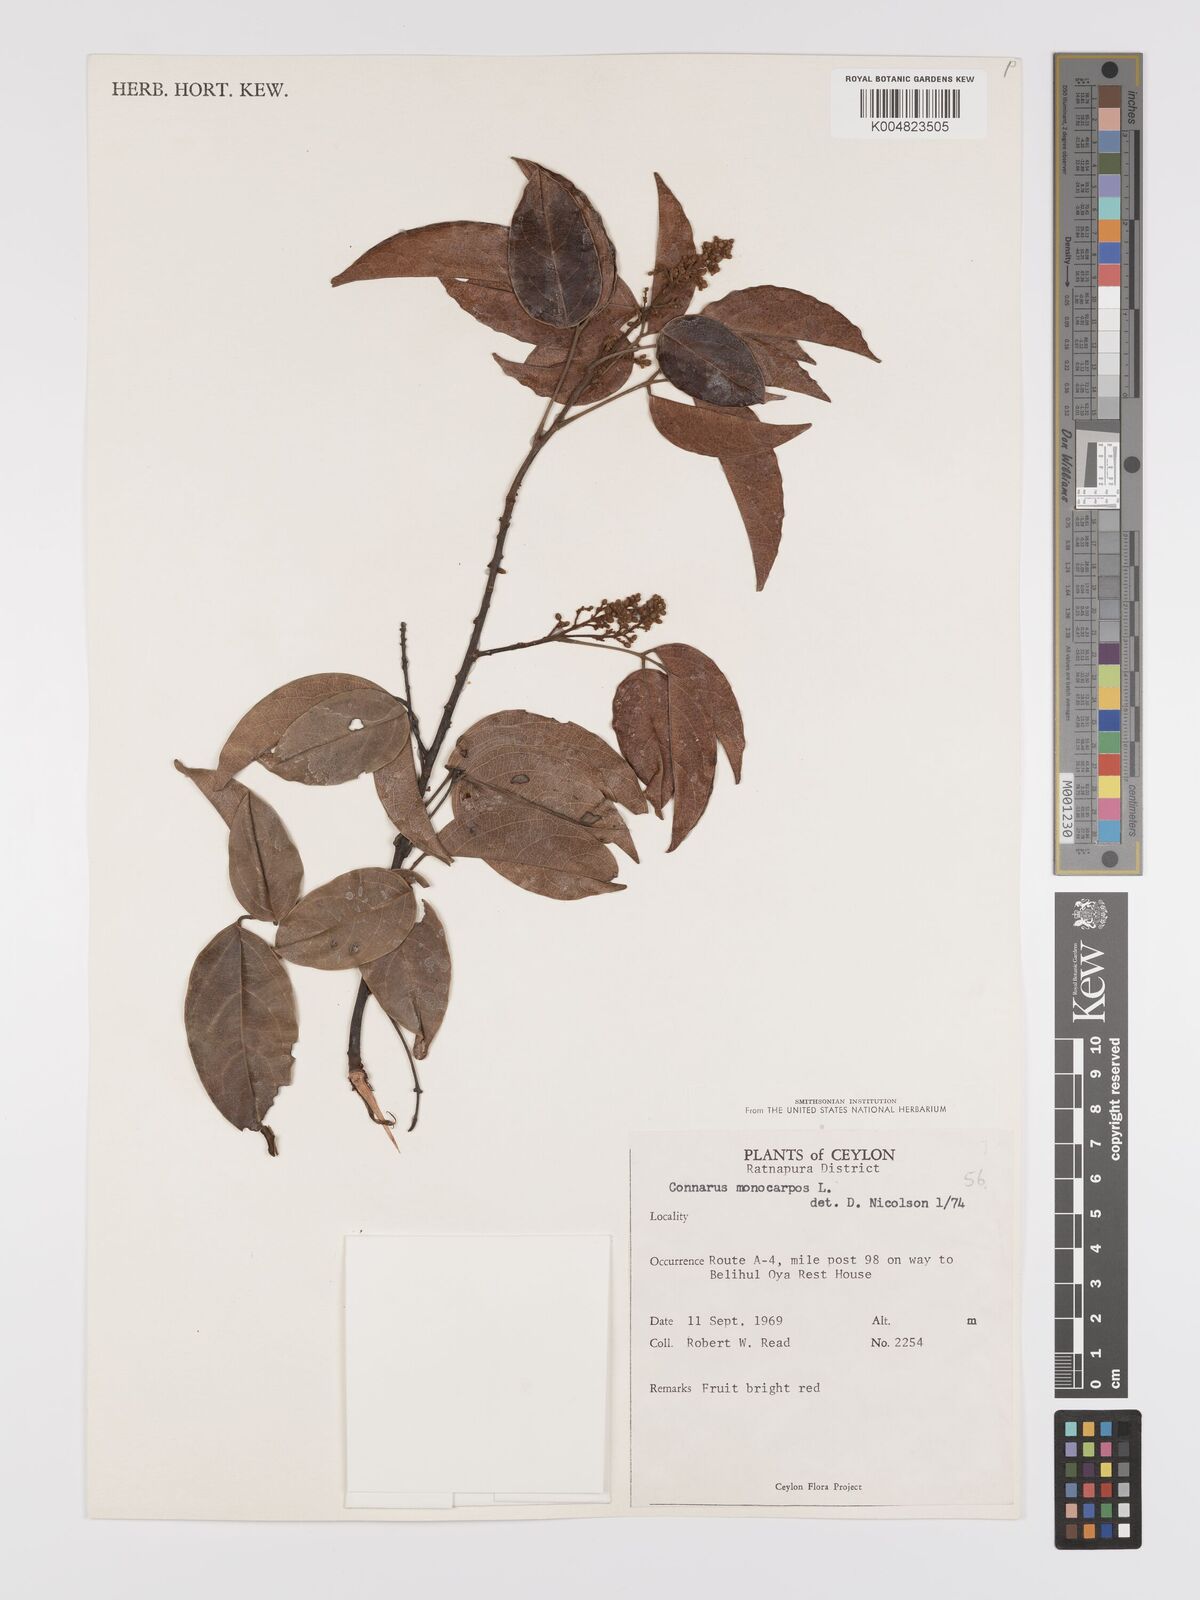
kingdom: Plantae
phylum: Tracheophyta
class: Magnoliopsida
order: Oxalidales
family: Connaraceae
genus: Connarus
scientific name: Connarus semidecandrus
